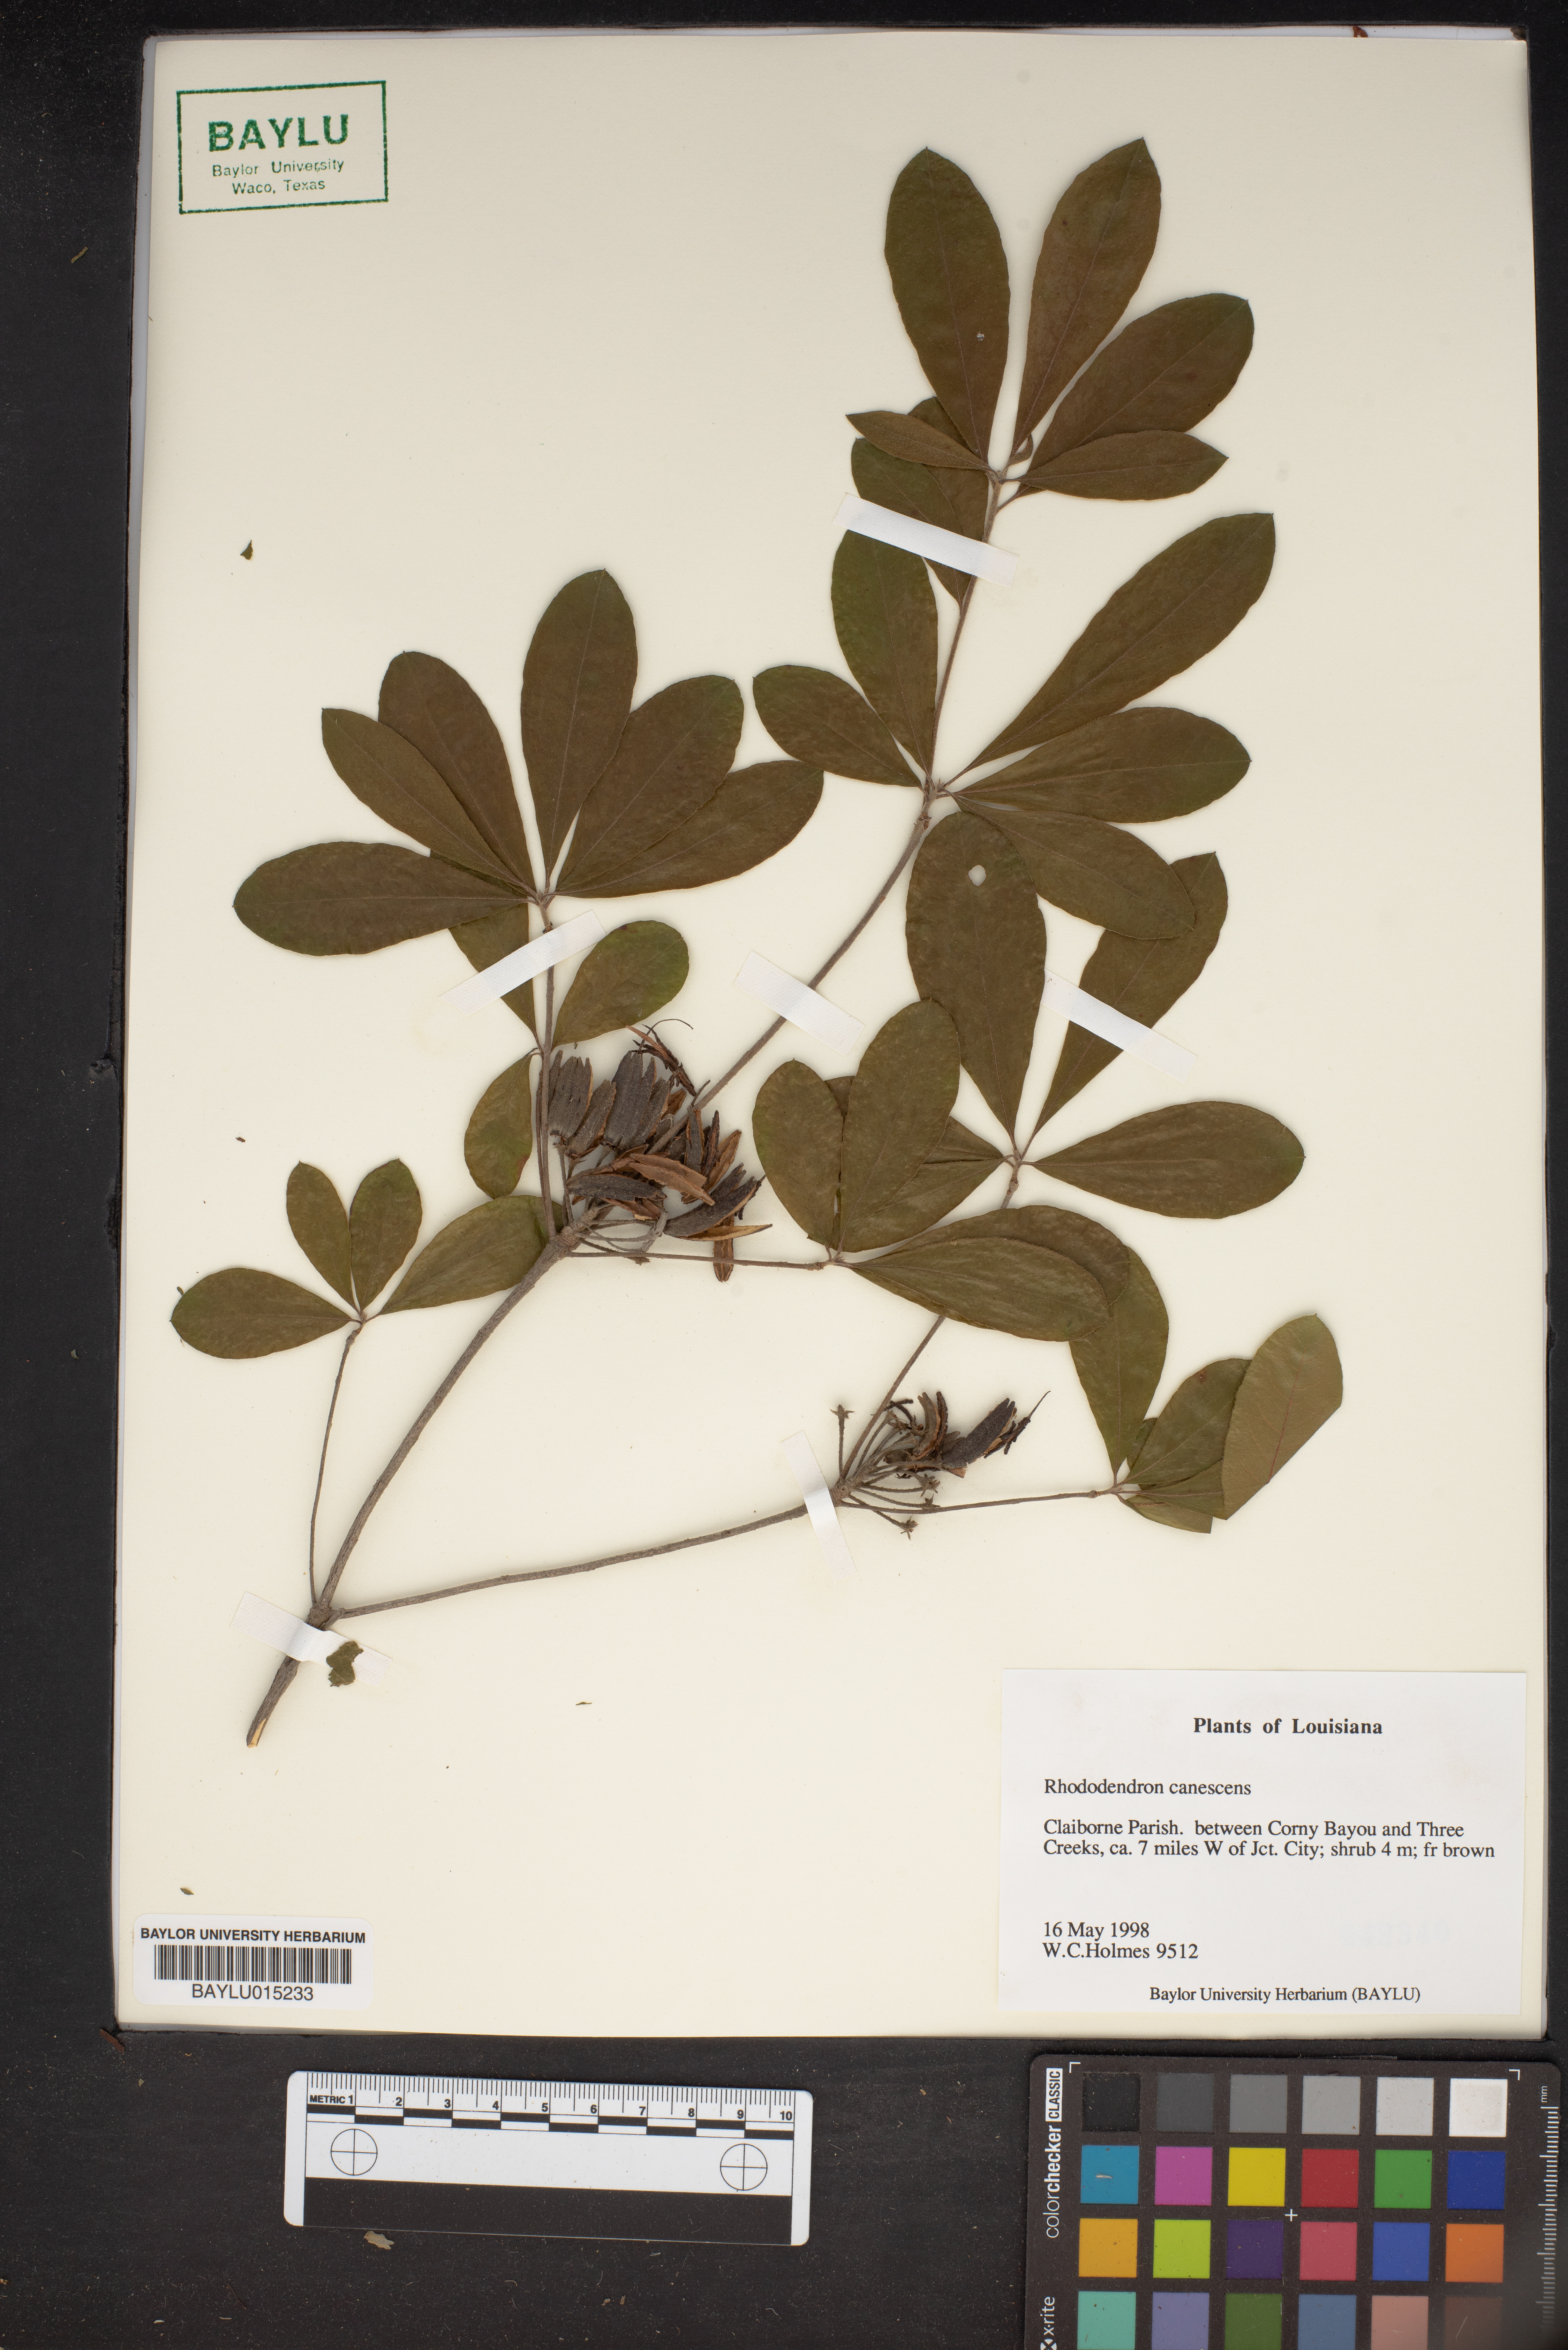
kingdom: Plantae
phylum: Tracheophyta
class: Magnoliopsida
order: Ericales
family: Ericaceae
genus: Rhododendron
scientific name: Rhododendron canescens
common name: Mountain azalea
